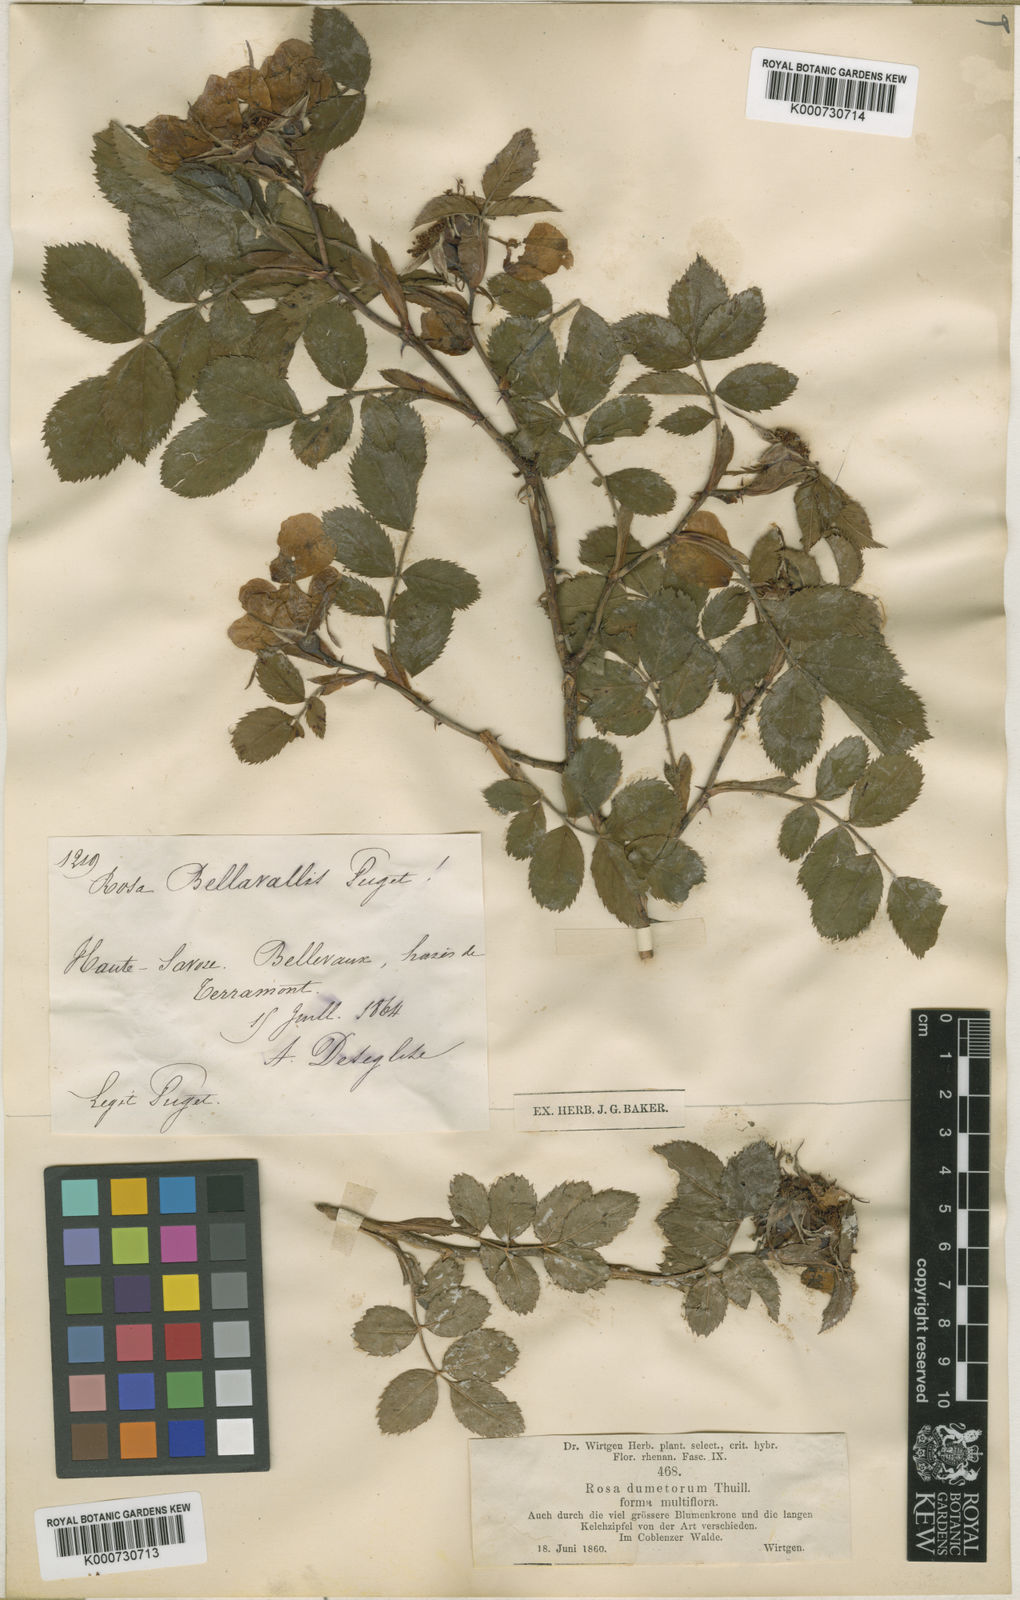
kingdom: Plantae
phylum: Tracheophyta
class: Magnoliopsida
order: Rosales
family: Rosaceae
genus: Rosa
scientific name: Rosa stylosa
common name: Short-styled field-rose
